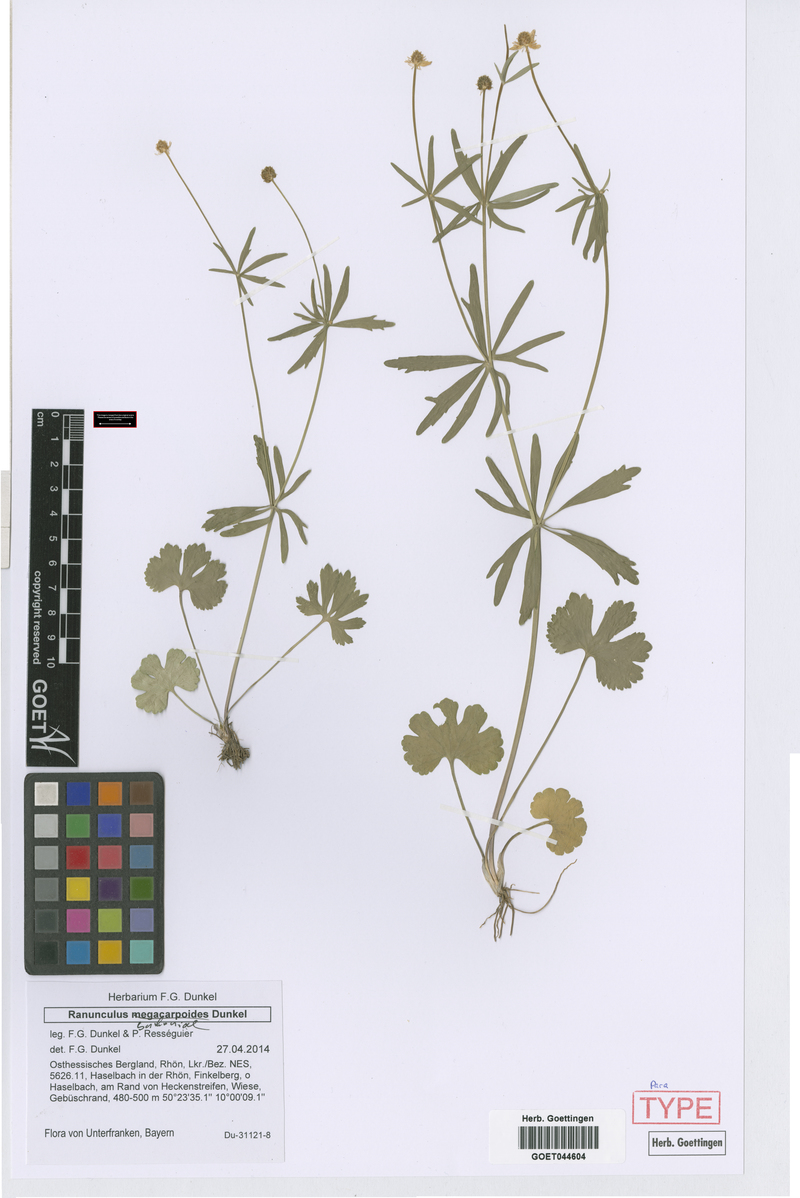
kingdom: Plantae
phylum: Tracheophyta
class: Magnoliopsida
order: Ranunculales
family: Ranunculaceae
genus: Ranunculus
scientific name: Ranunculus buchoniae
